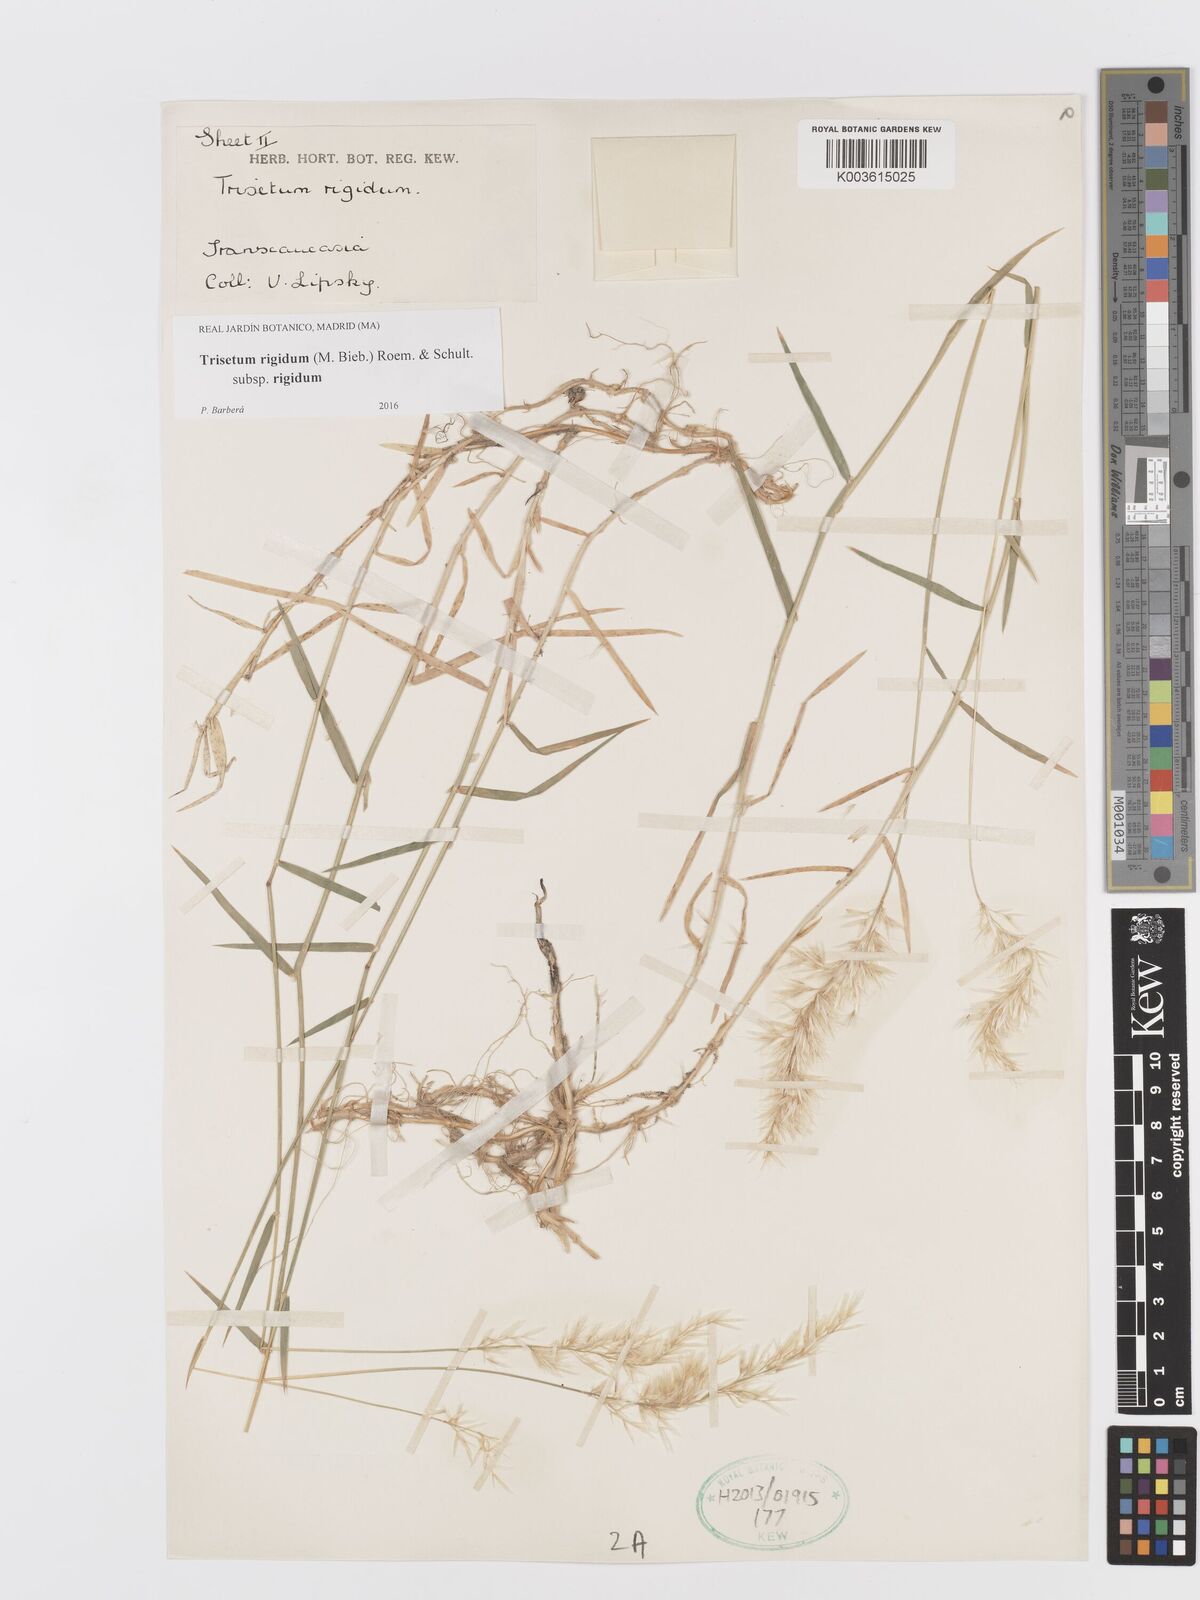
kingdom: Plantae
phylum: Tracheophyta
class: Liliopsida
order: Poales
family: Poaceae
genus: Trisetum
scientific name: Trisetum rigidum
